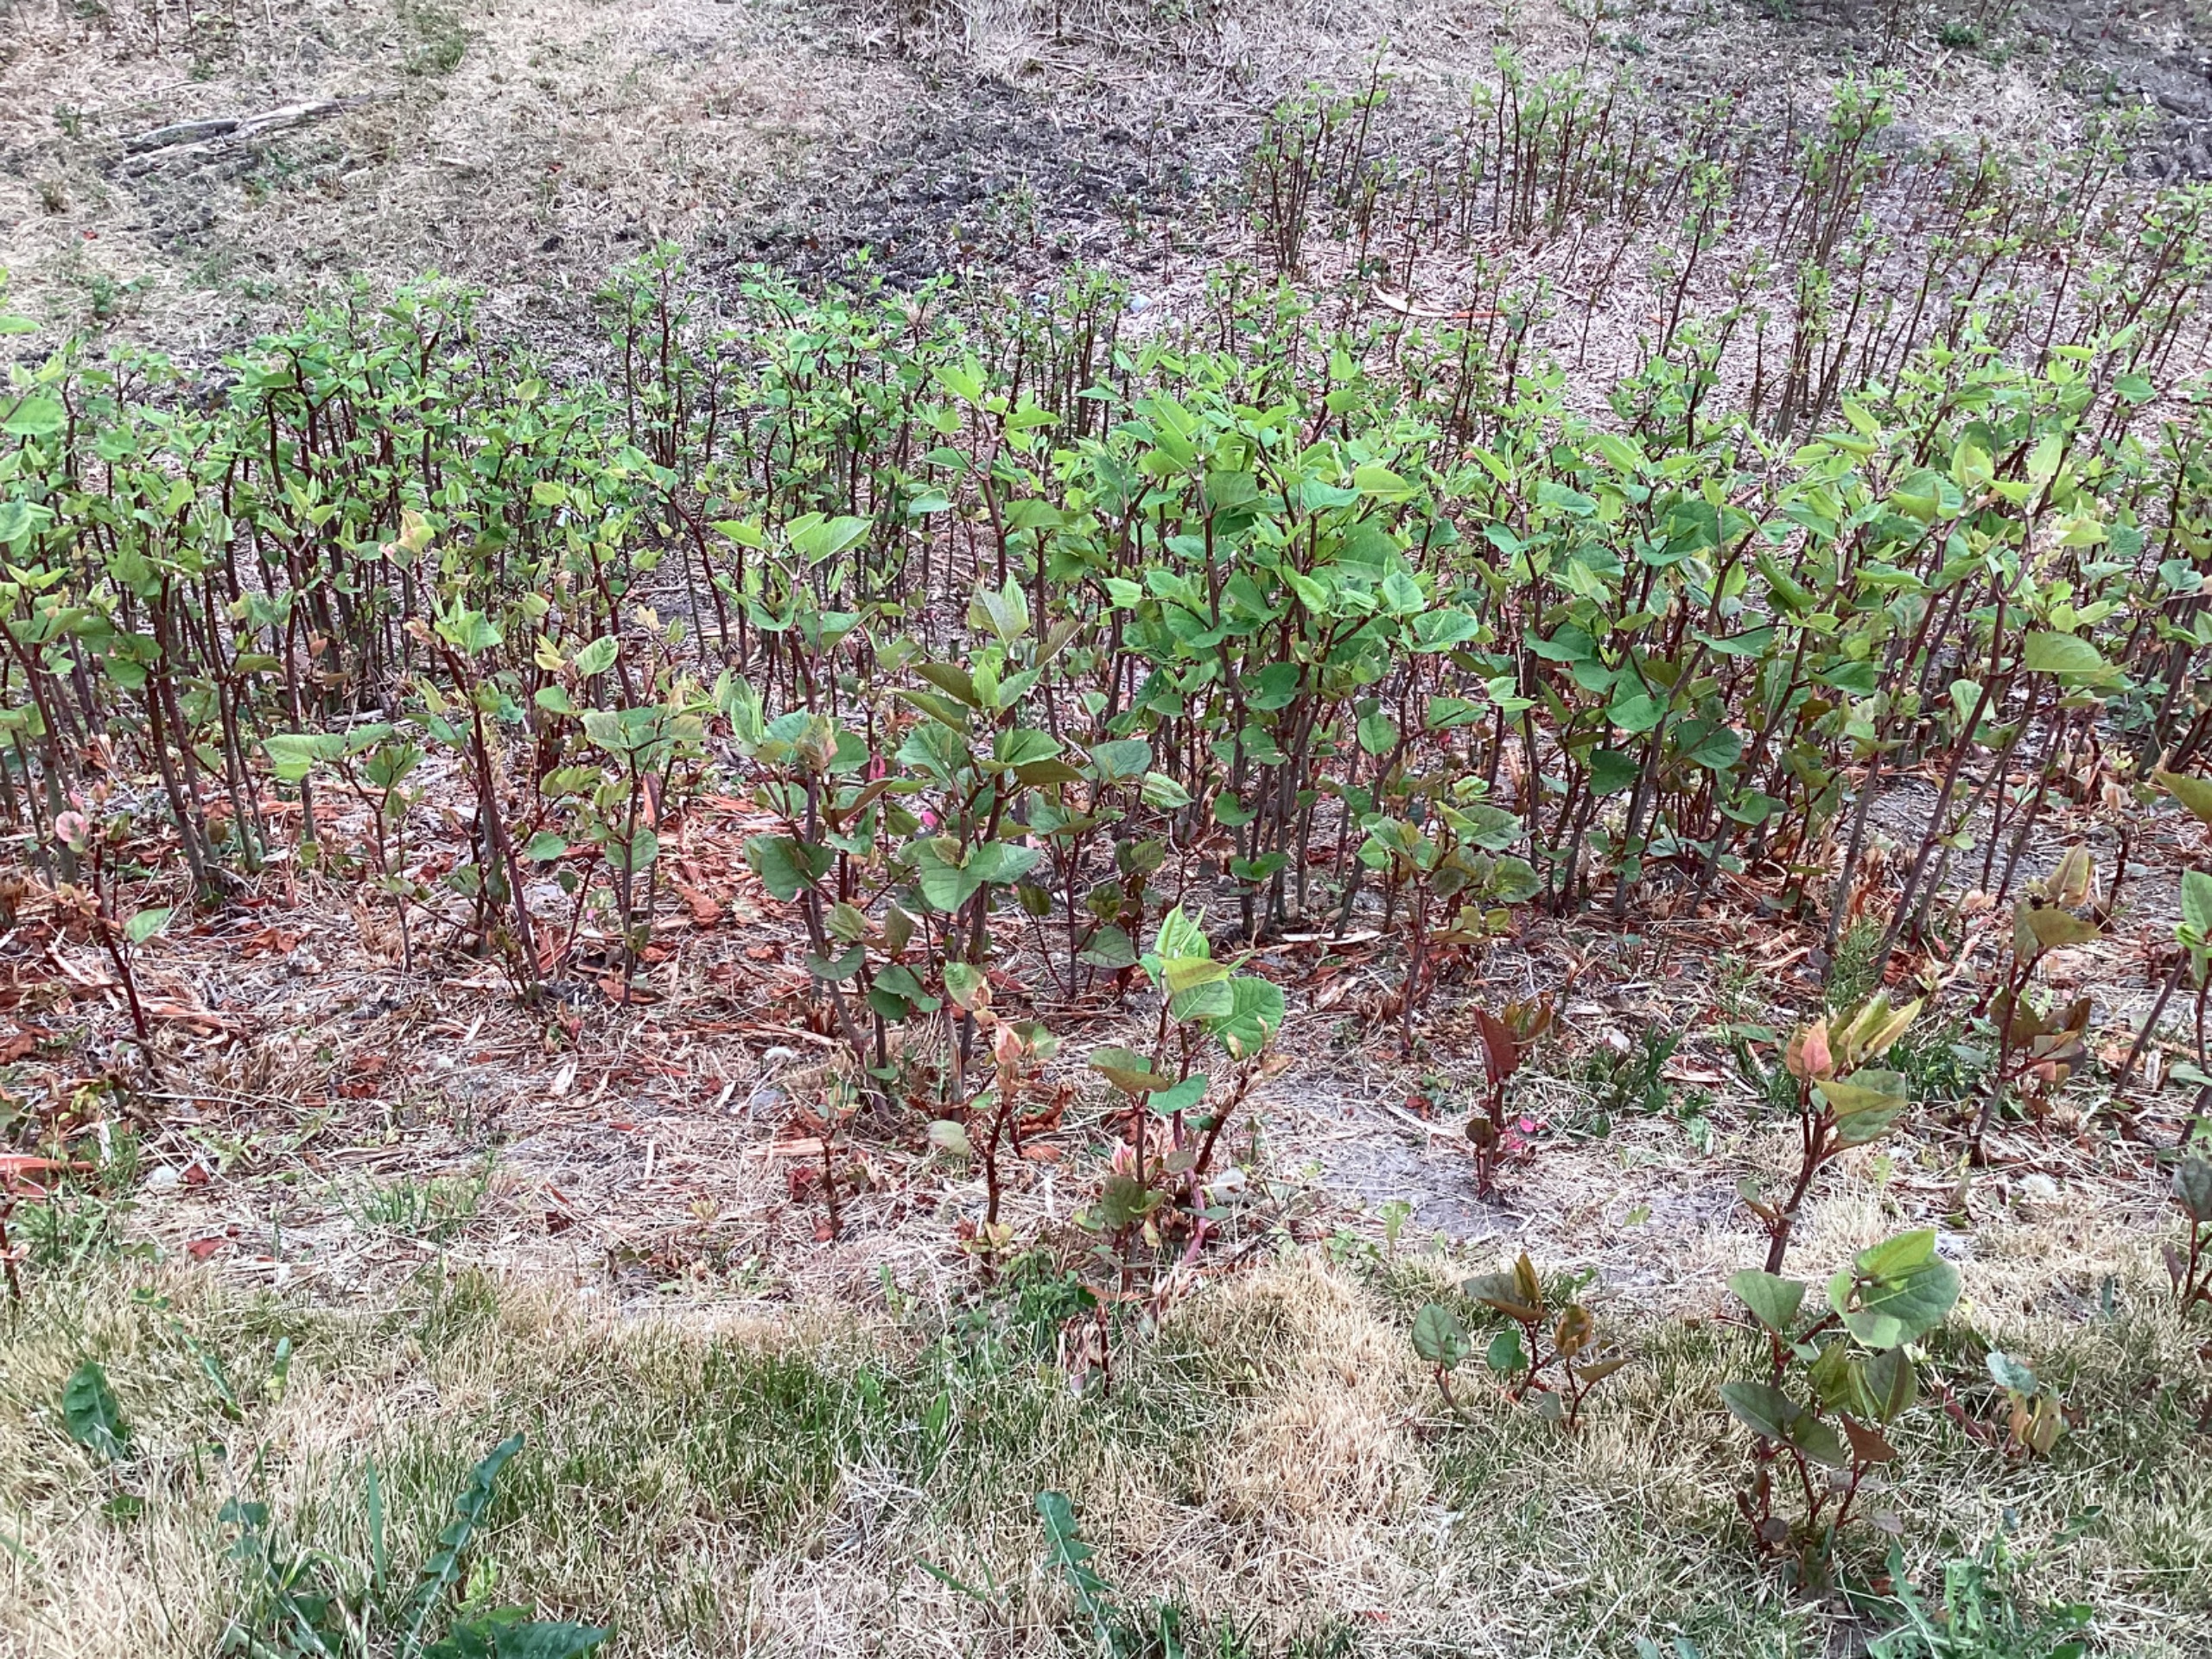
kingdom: Plantae
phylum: Tracheophyta
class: Magnoliopsida
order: Caryophyllales
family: Polygonaceae
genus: Reynoutria
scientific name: Reynoutria
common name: Pileurt (Reynoutria-slægten)
